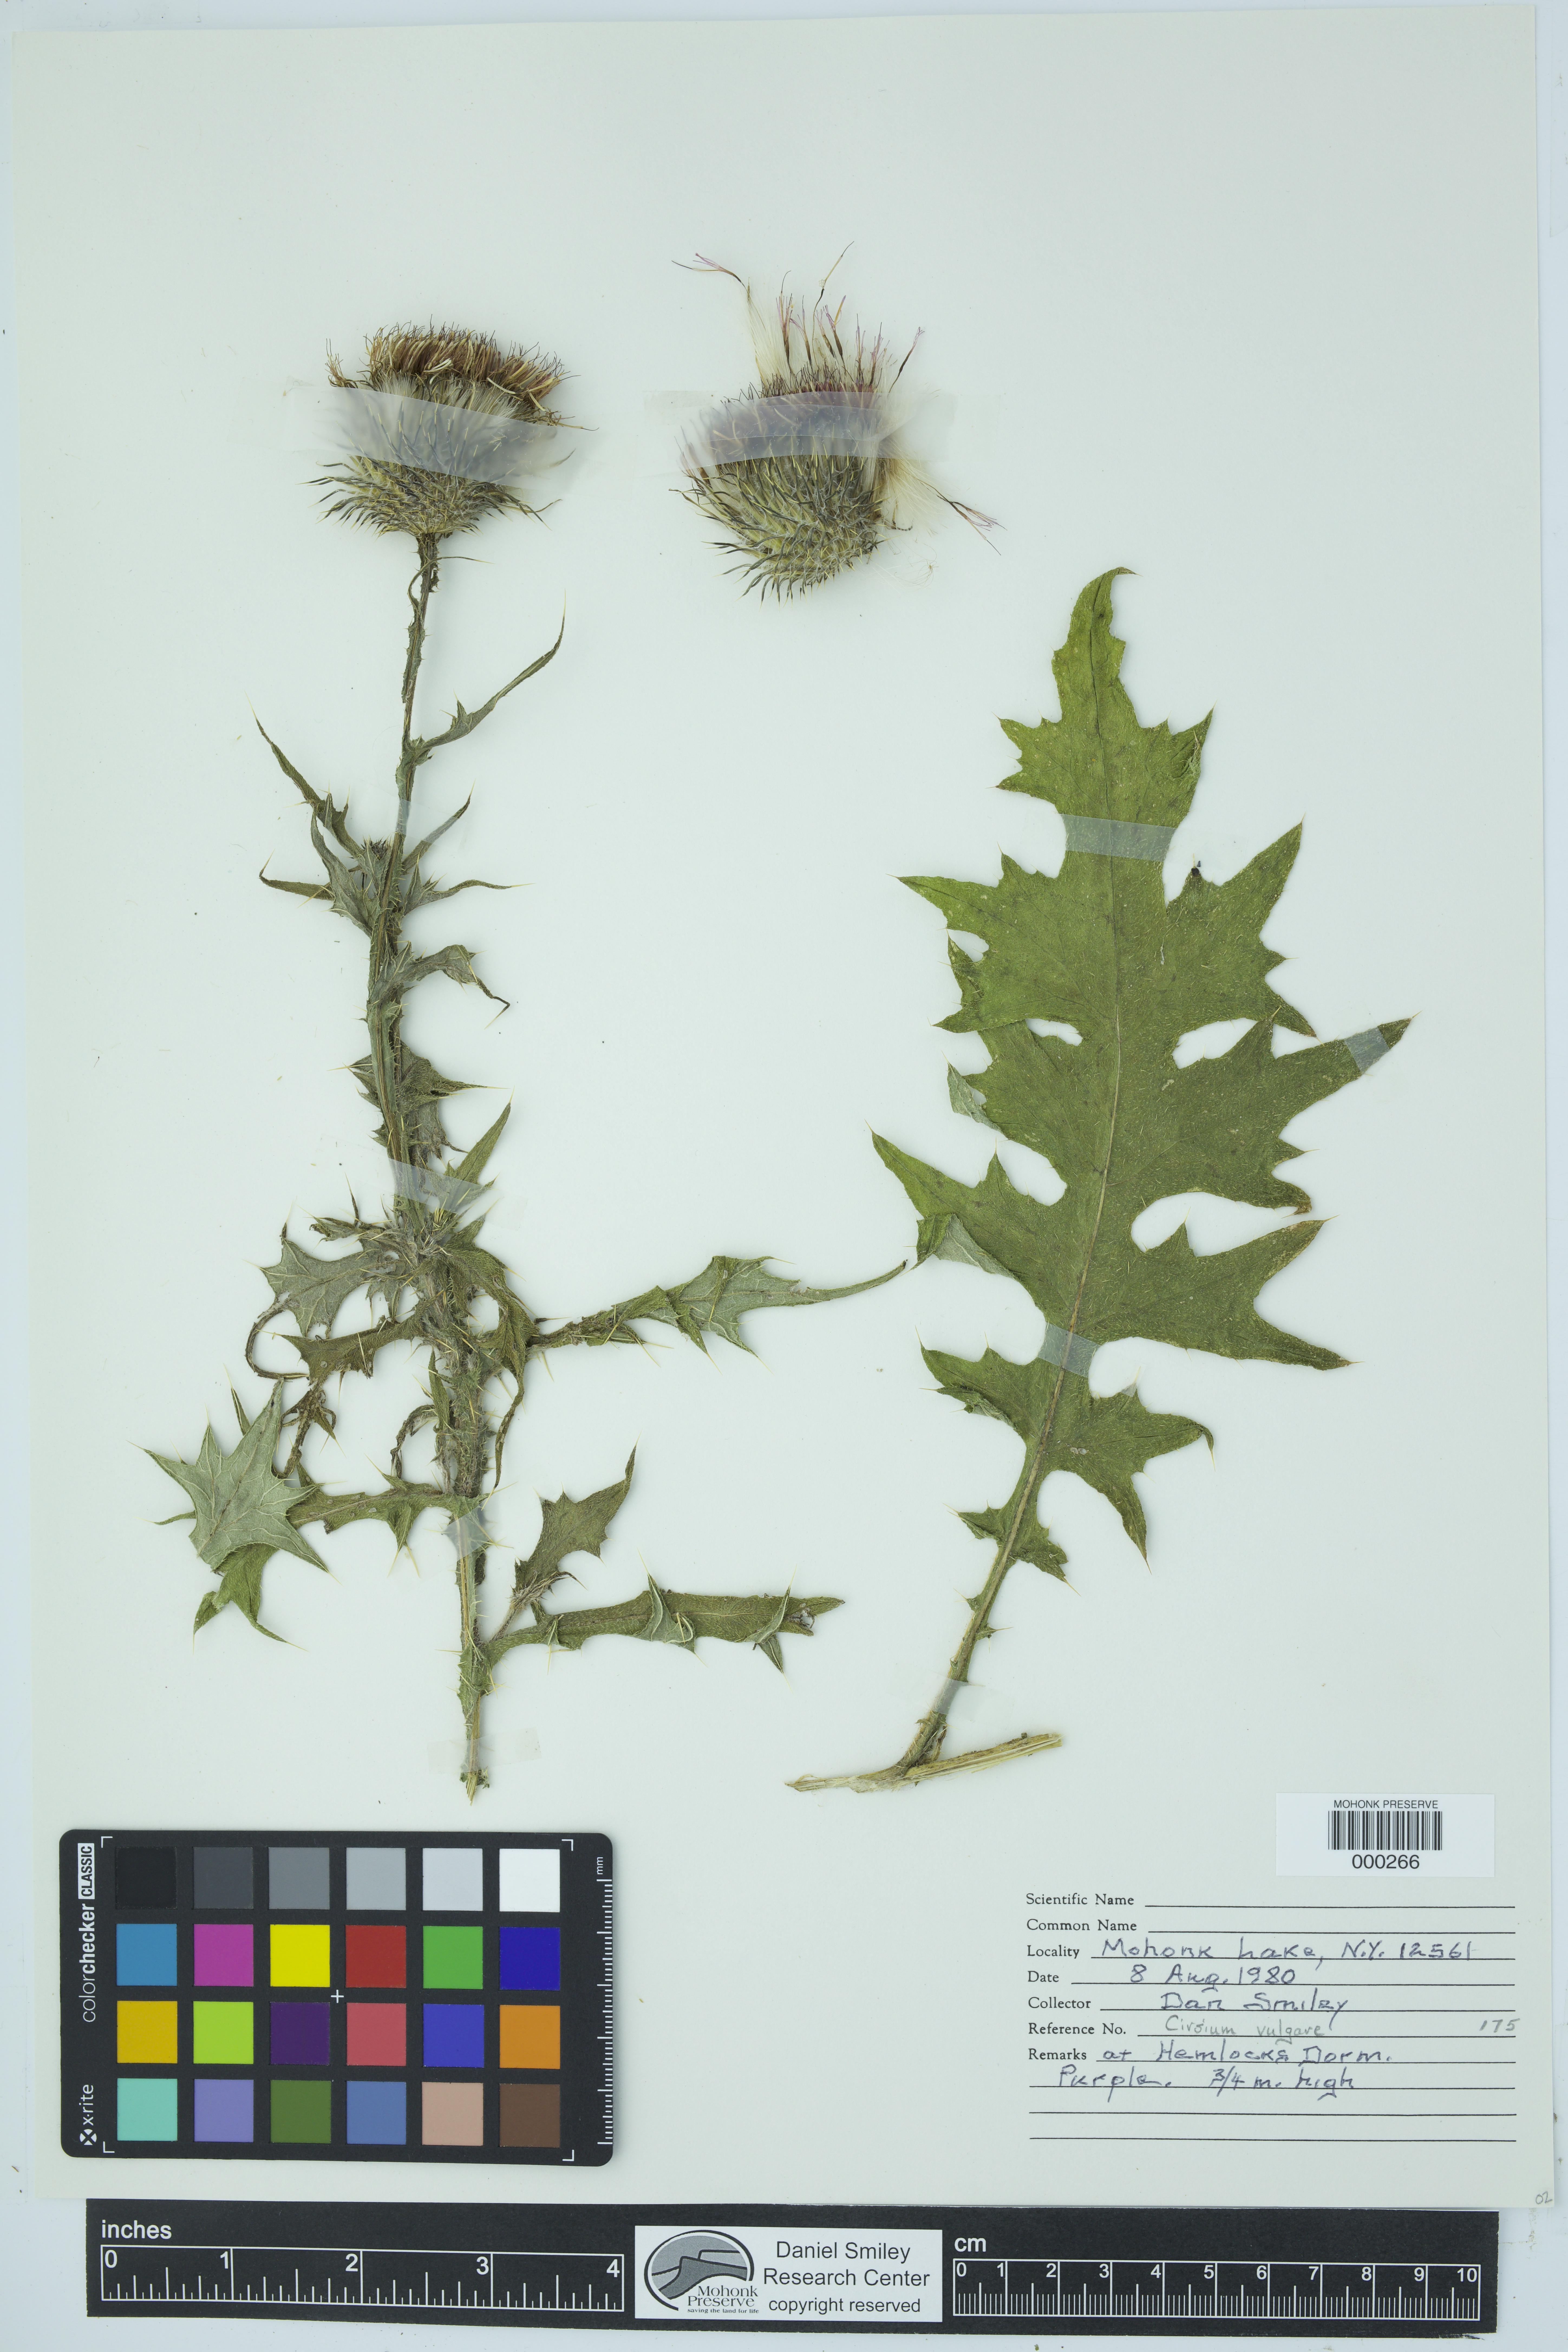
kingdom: Plantae
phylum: Tracheophyta
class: Magnoliopsida
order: Asterales
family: Asteraceae
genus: Cirsium
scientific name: Cirsium vulgare
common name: Bull thistle
